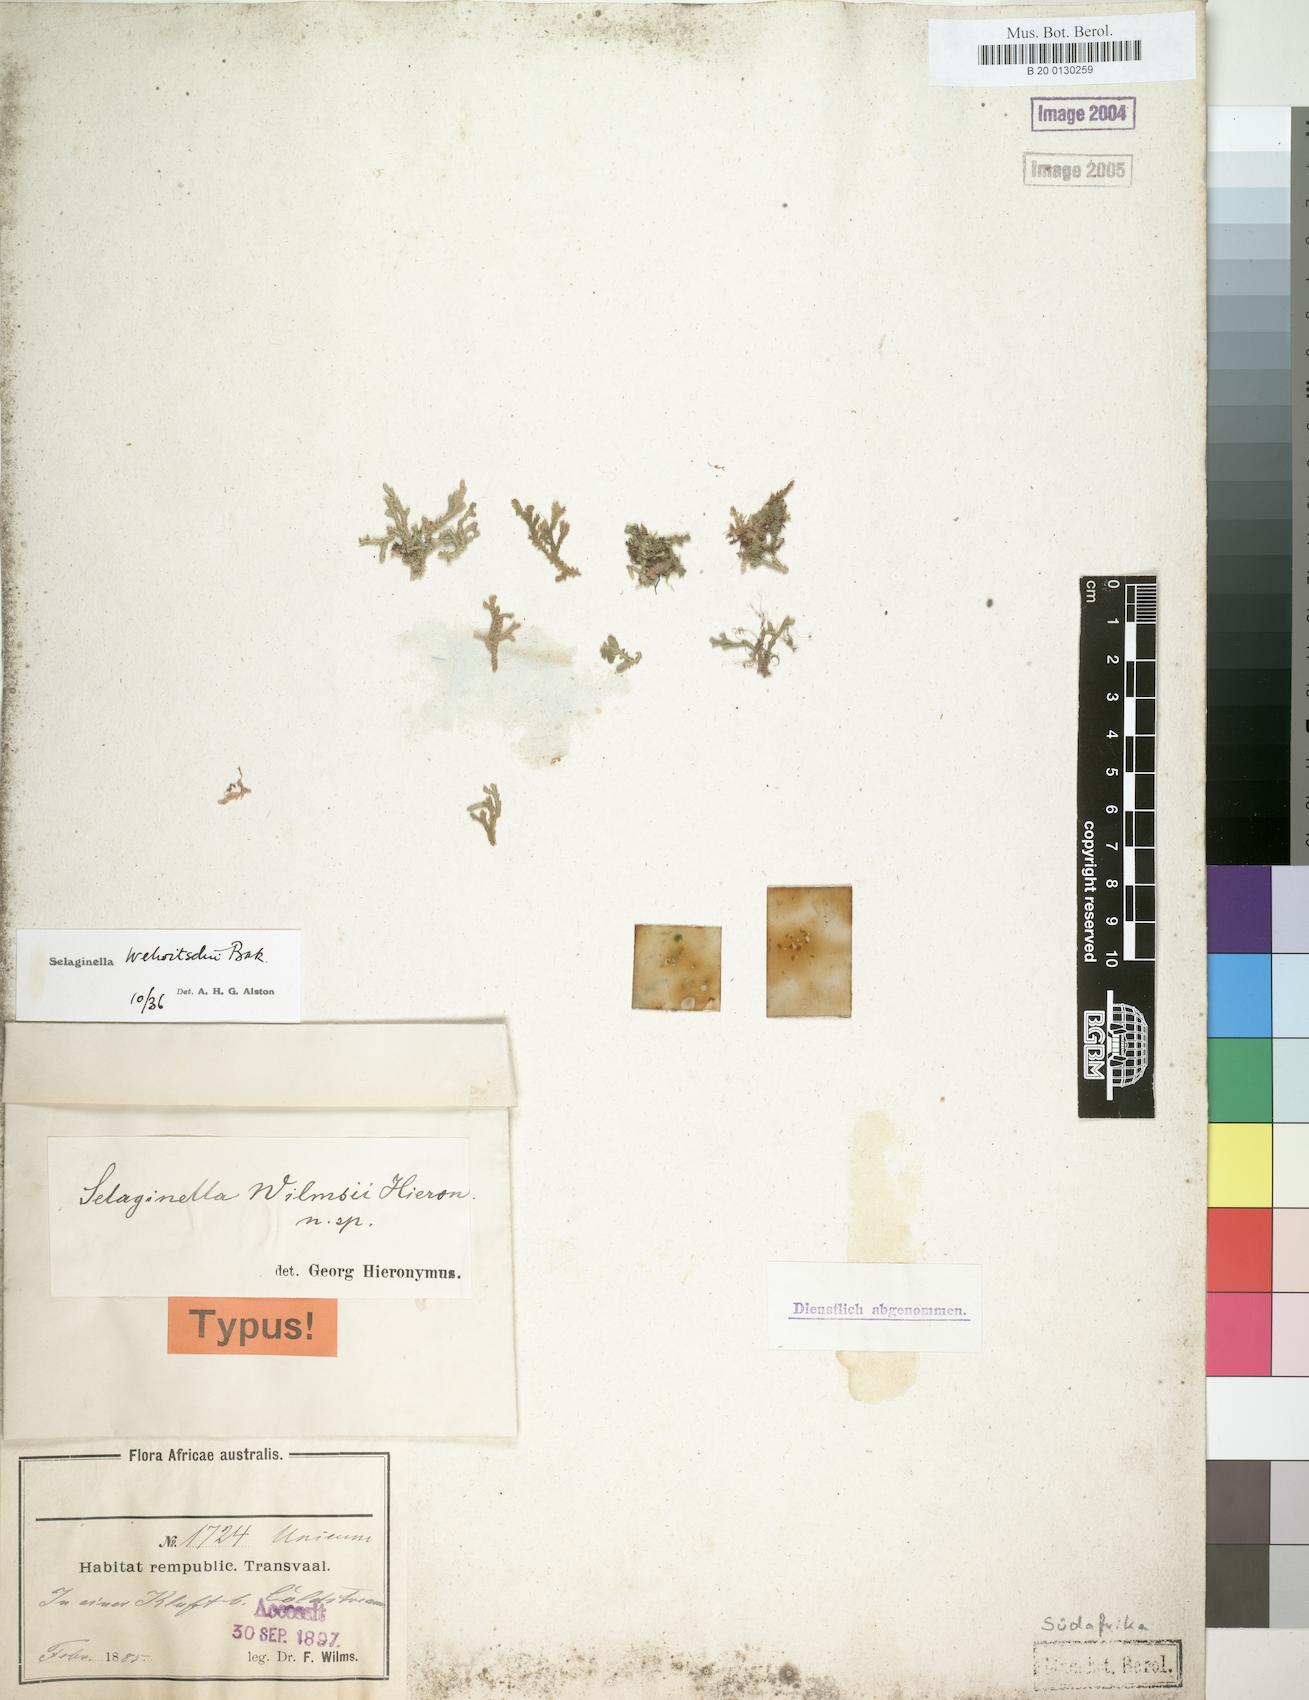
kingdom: Plantae
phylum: Tracheophyta
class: Lycopodiopsida
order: Selaginellales
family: Selaginellaceae
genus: Selaginella
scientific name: Selaginella
